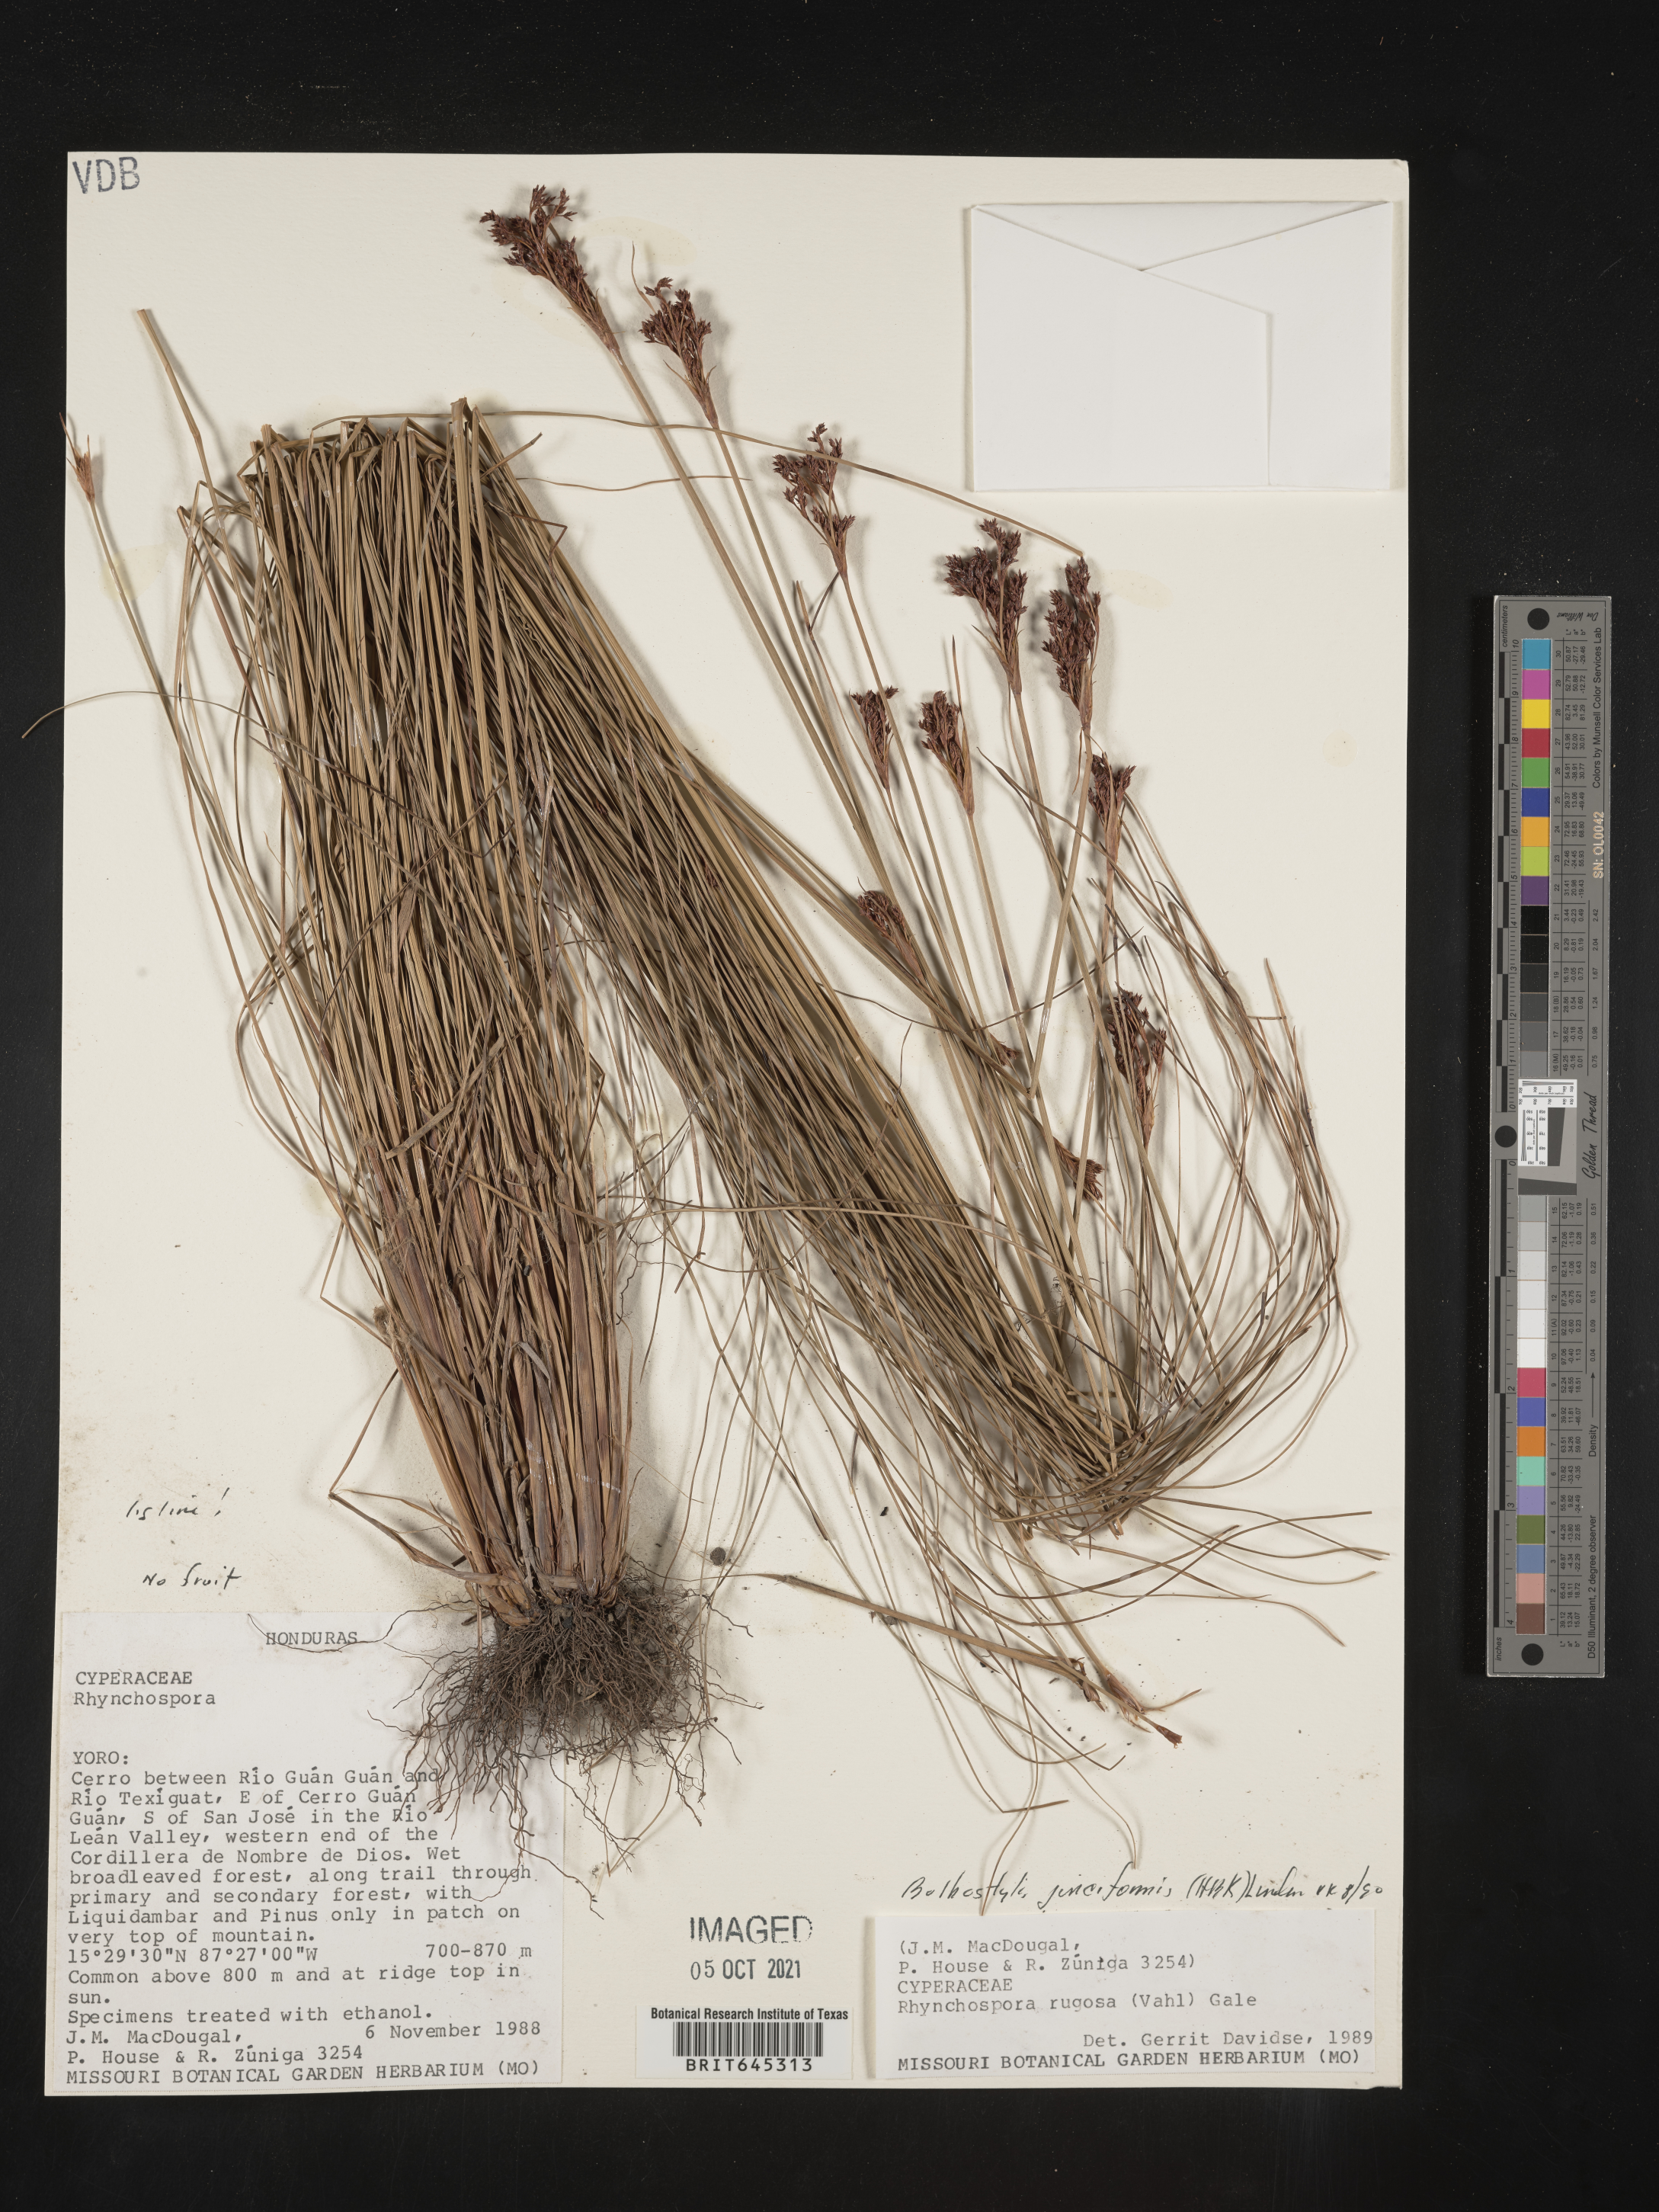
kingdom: Plantae
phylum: Tracheophyta
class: Liliopsida
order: Poales
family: Cyperaceae
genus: Bulbostylis
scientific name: Bulbostylis junciformis
